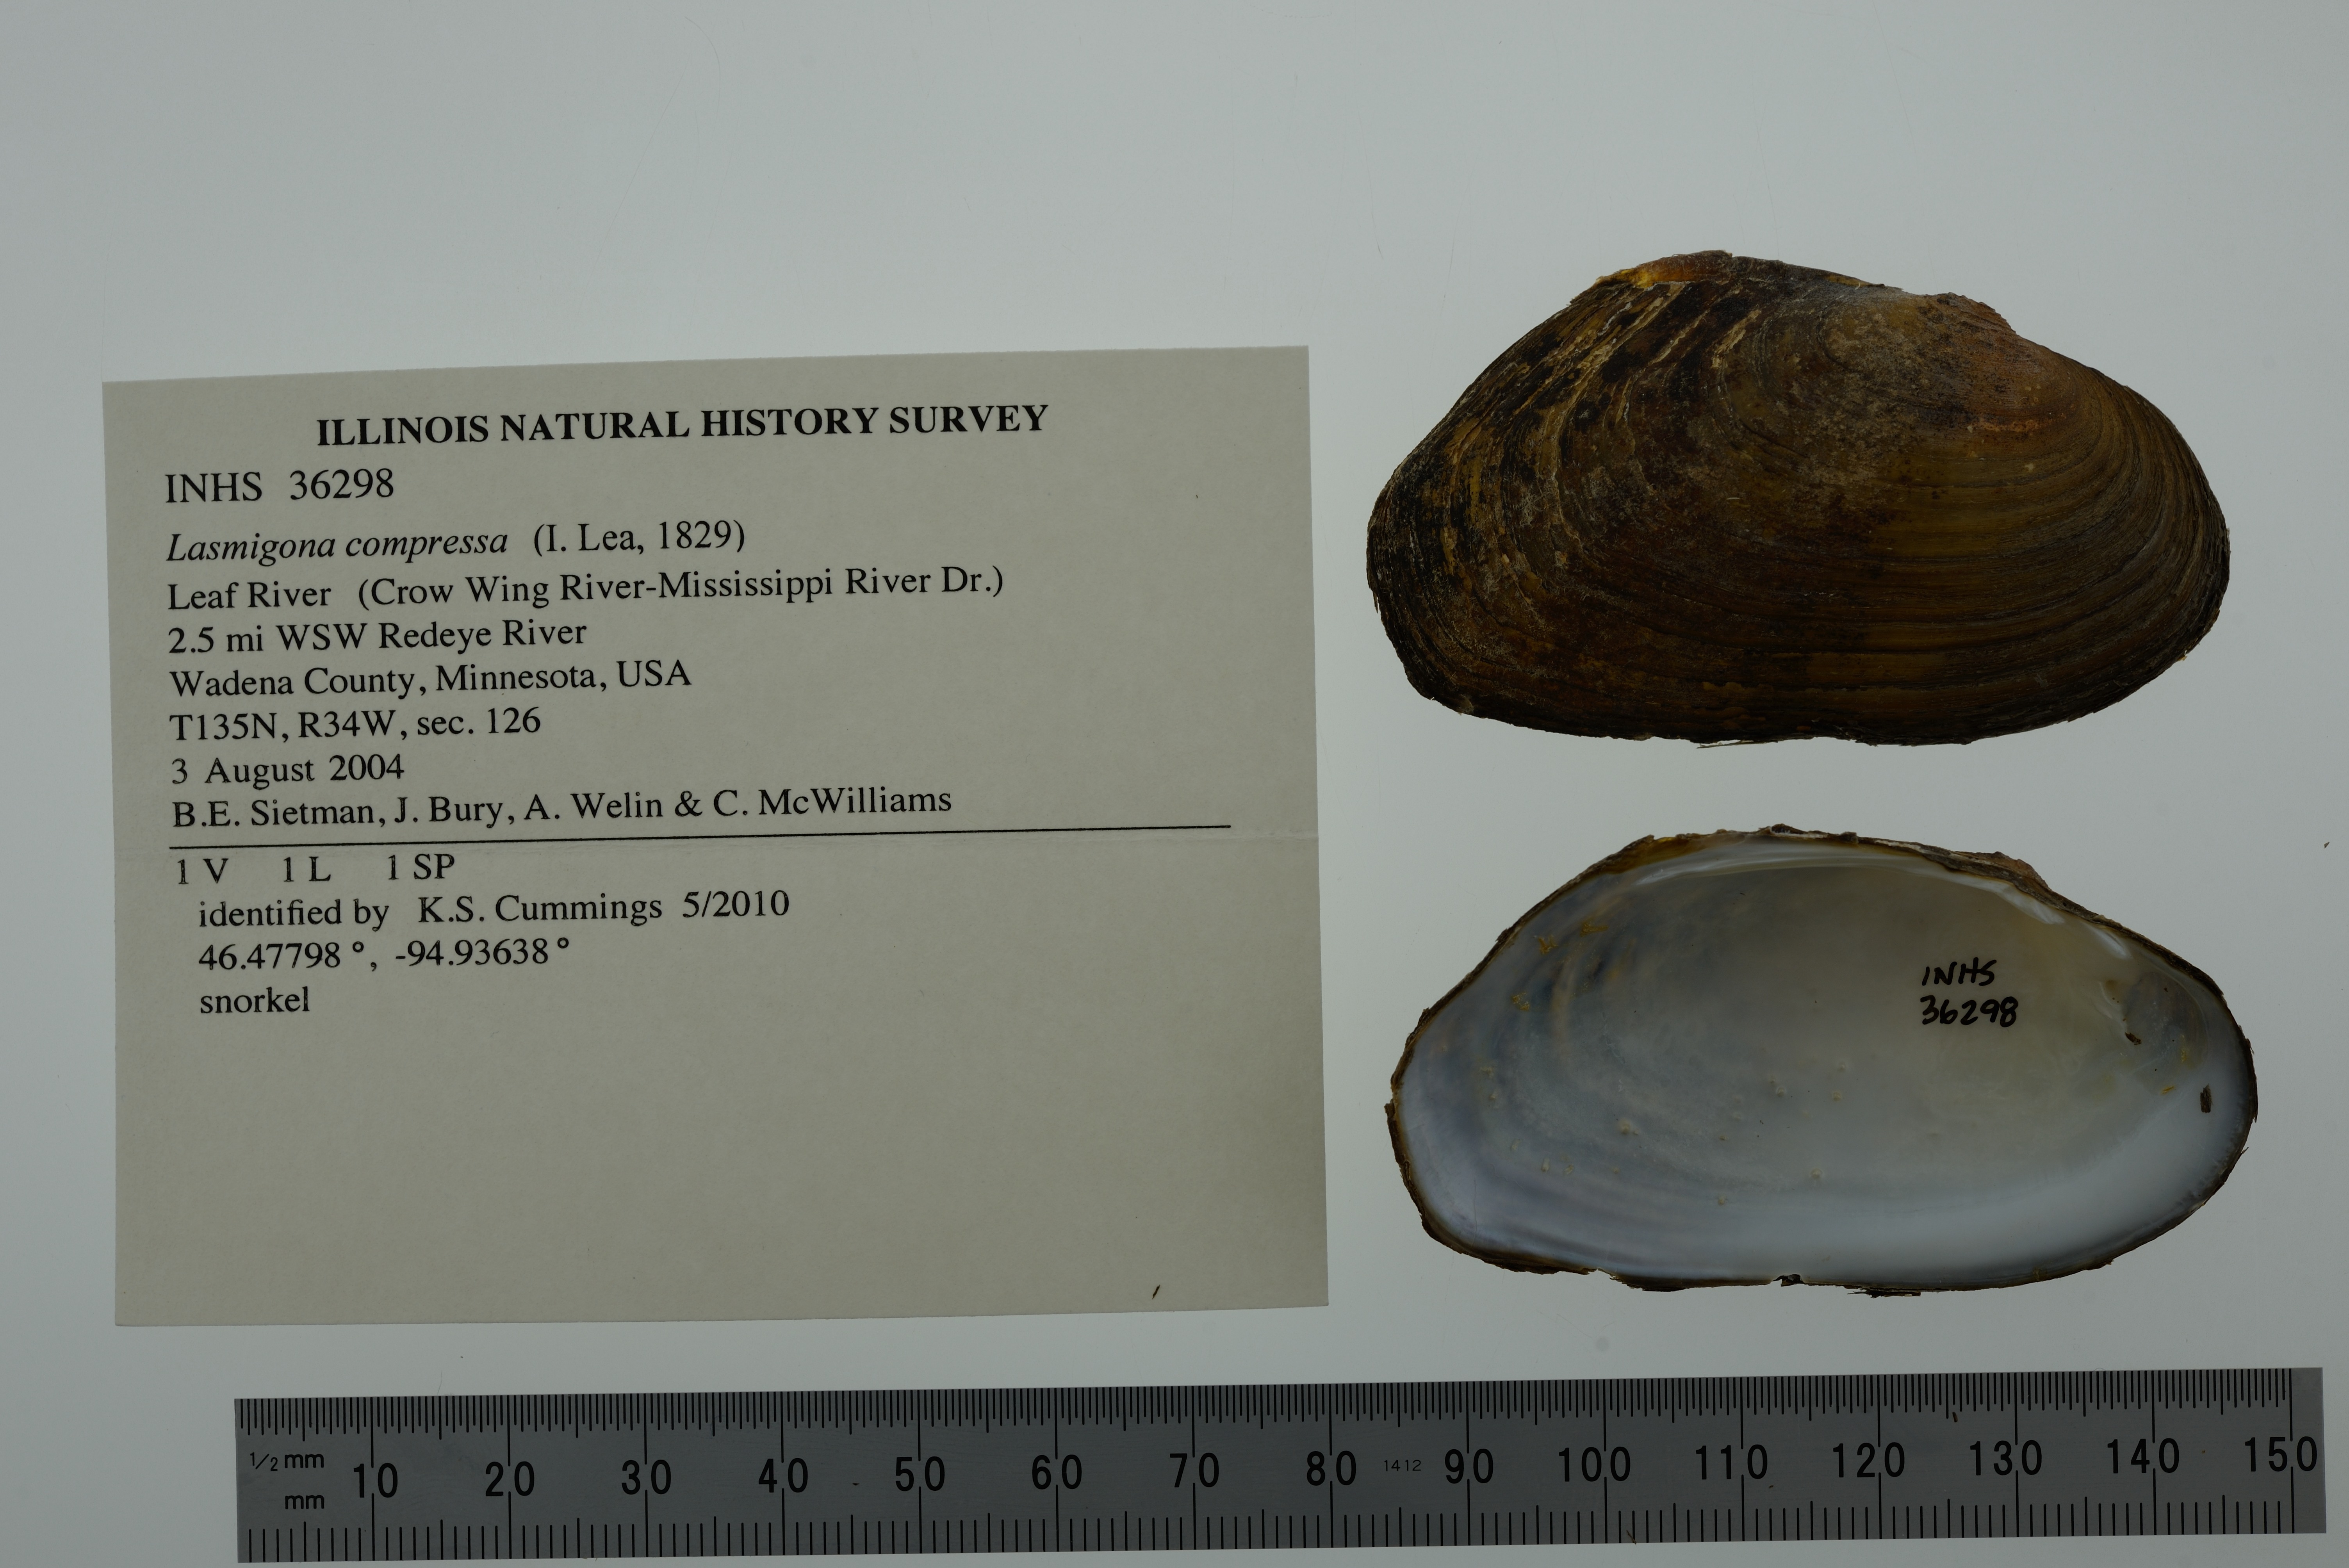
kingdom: Animalia
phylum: Mollusca
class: Bivalvia
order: Unionida
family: Unionidae
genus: Lasmigona
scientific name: Lasmigona compressa
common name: Creek heelsplitter
